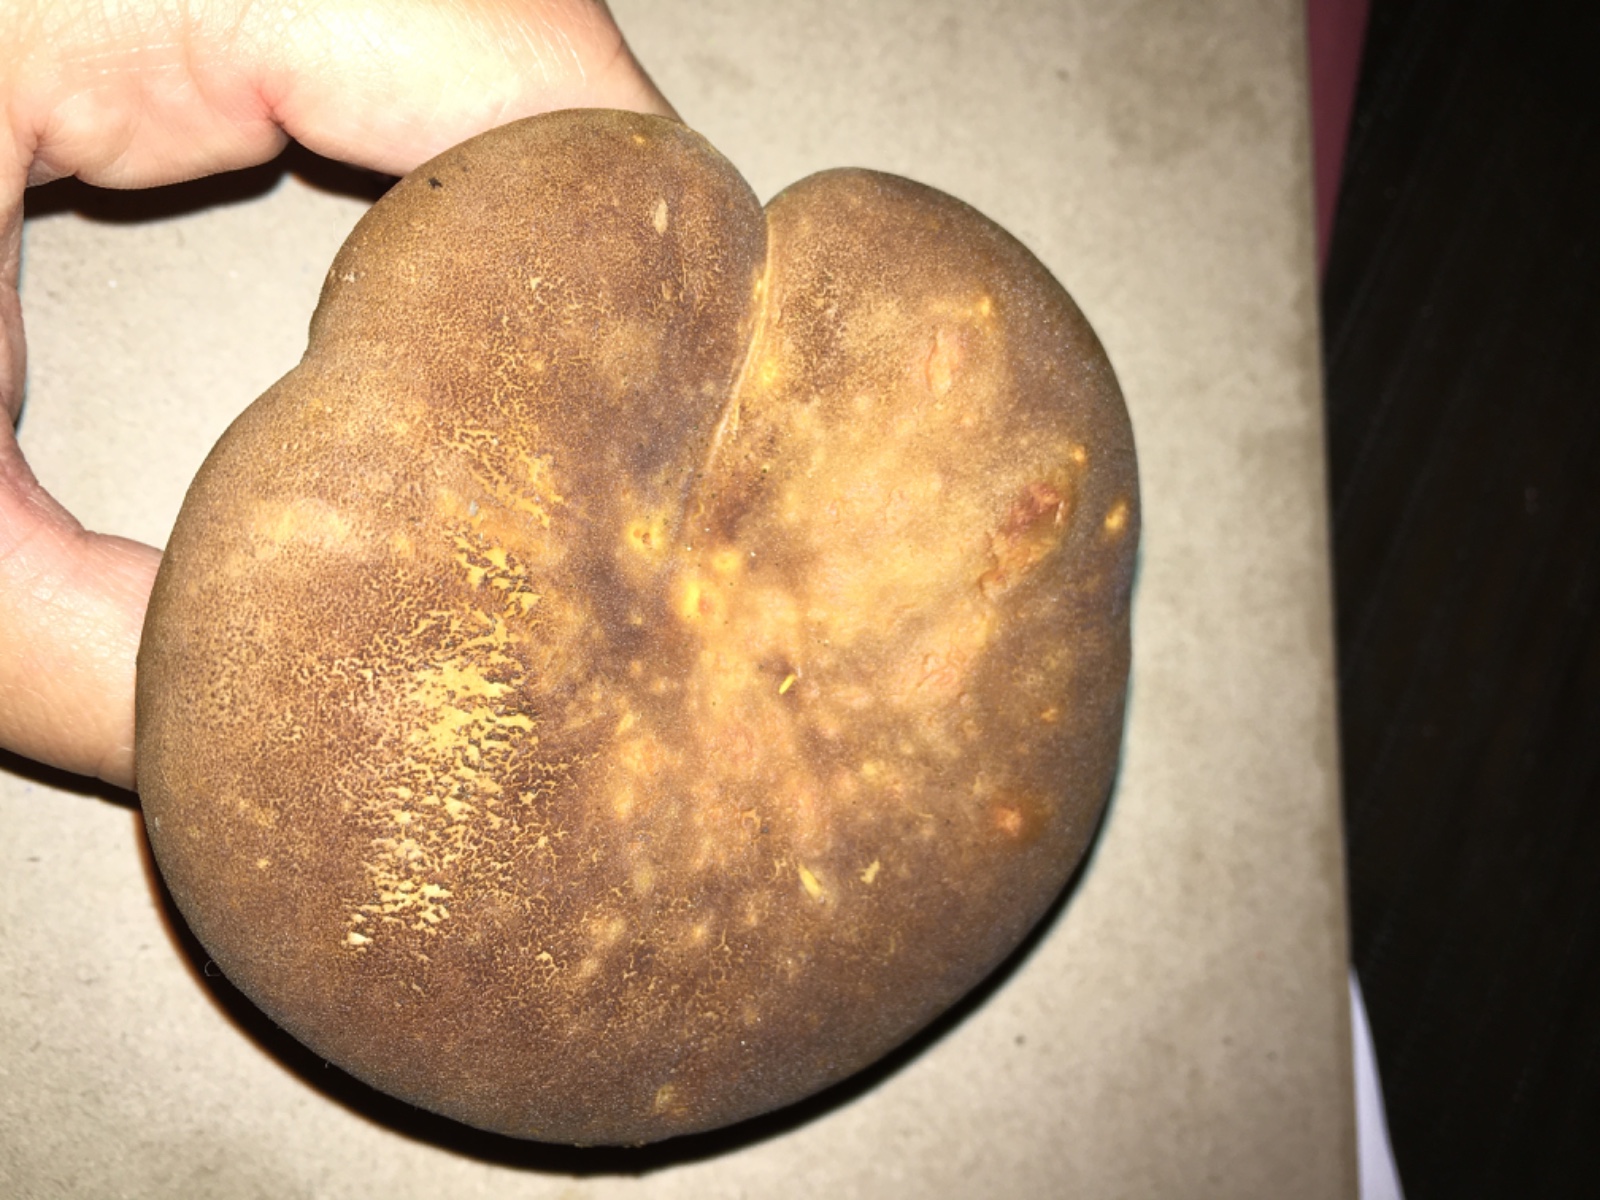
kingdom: Fungi
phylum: Basidiomycota
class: Agaricomycetes
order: Boletales
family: Tapinellaceae
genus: Tapinella
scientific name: Tapinella atrotomentosa
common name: sortfiltet viftesvamp
